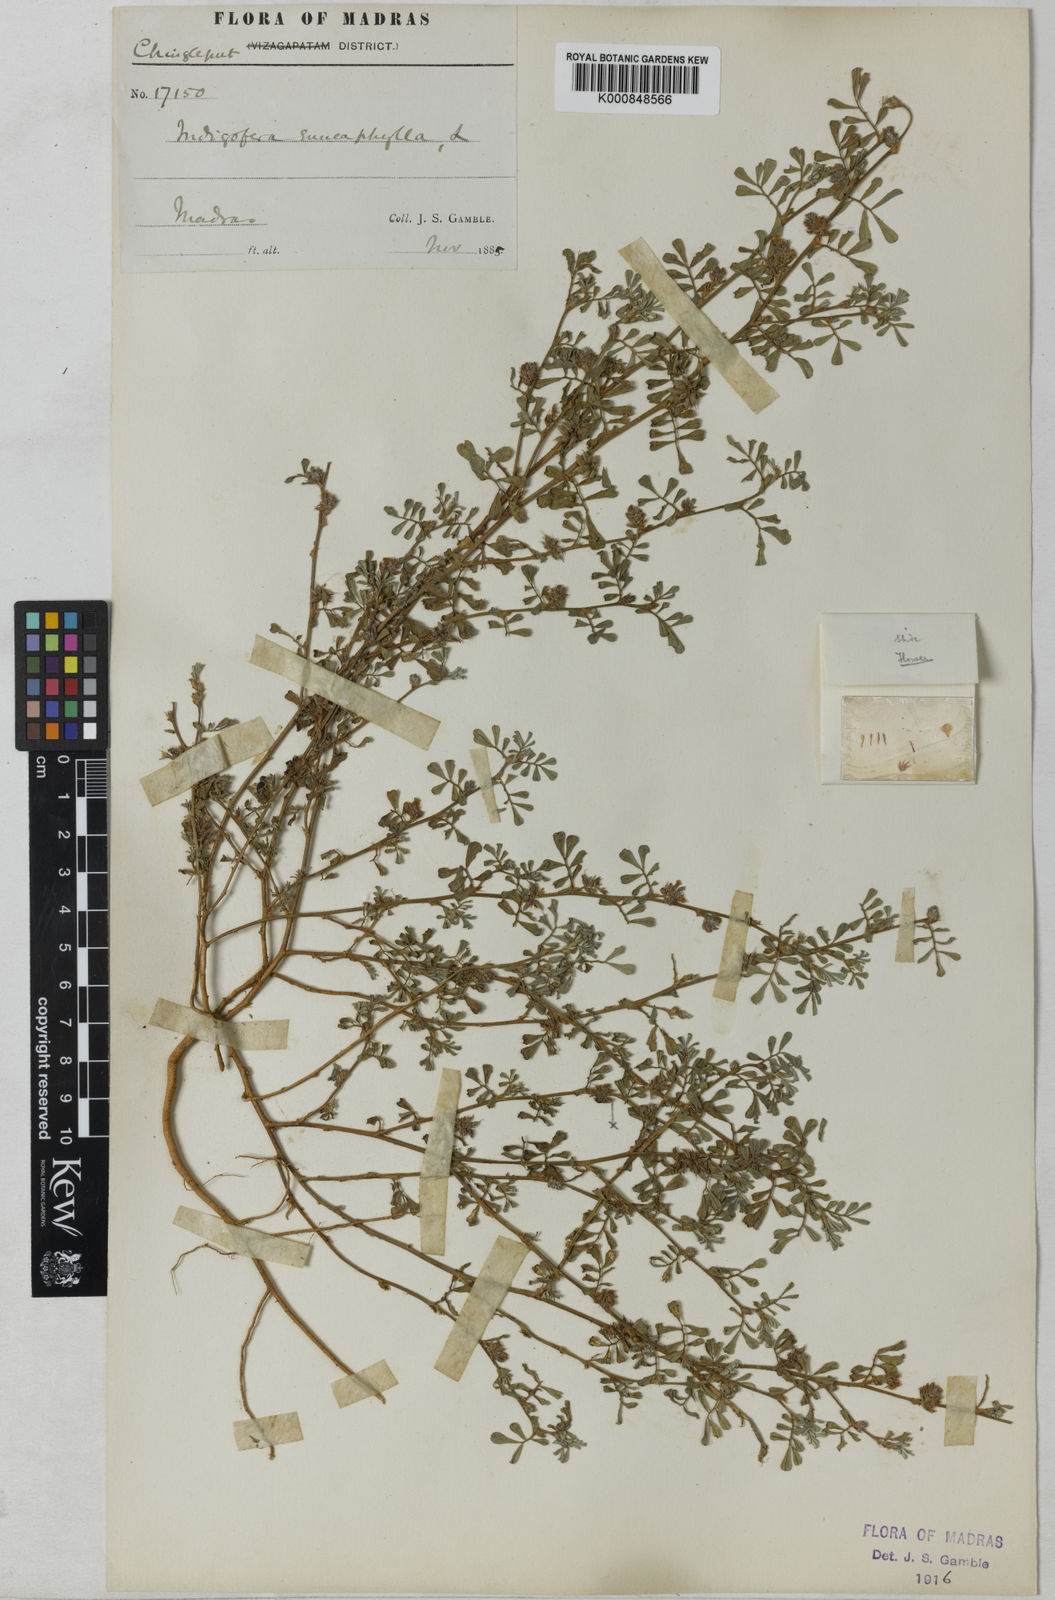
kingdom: Plantae
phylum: Tracheophyta
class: Magnoliopsida
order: Fabales
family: Fabaceae
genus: Indigofera
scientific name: Indigofera linnaei
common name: Nine-leaf indigo
